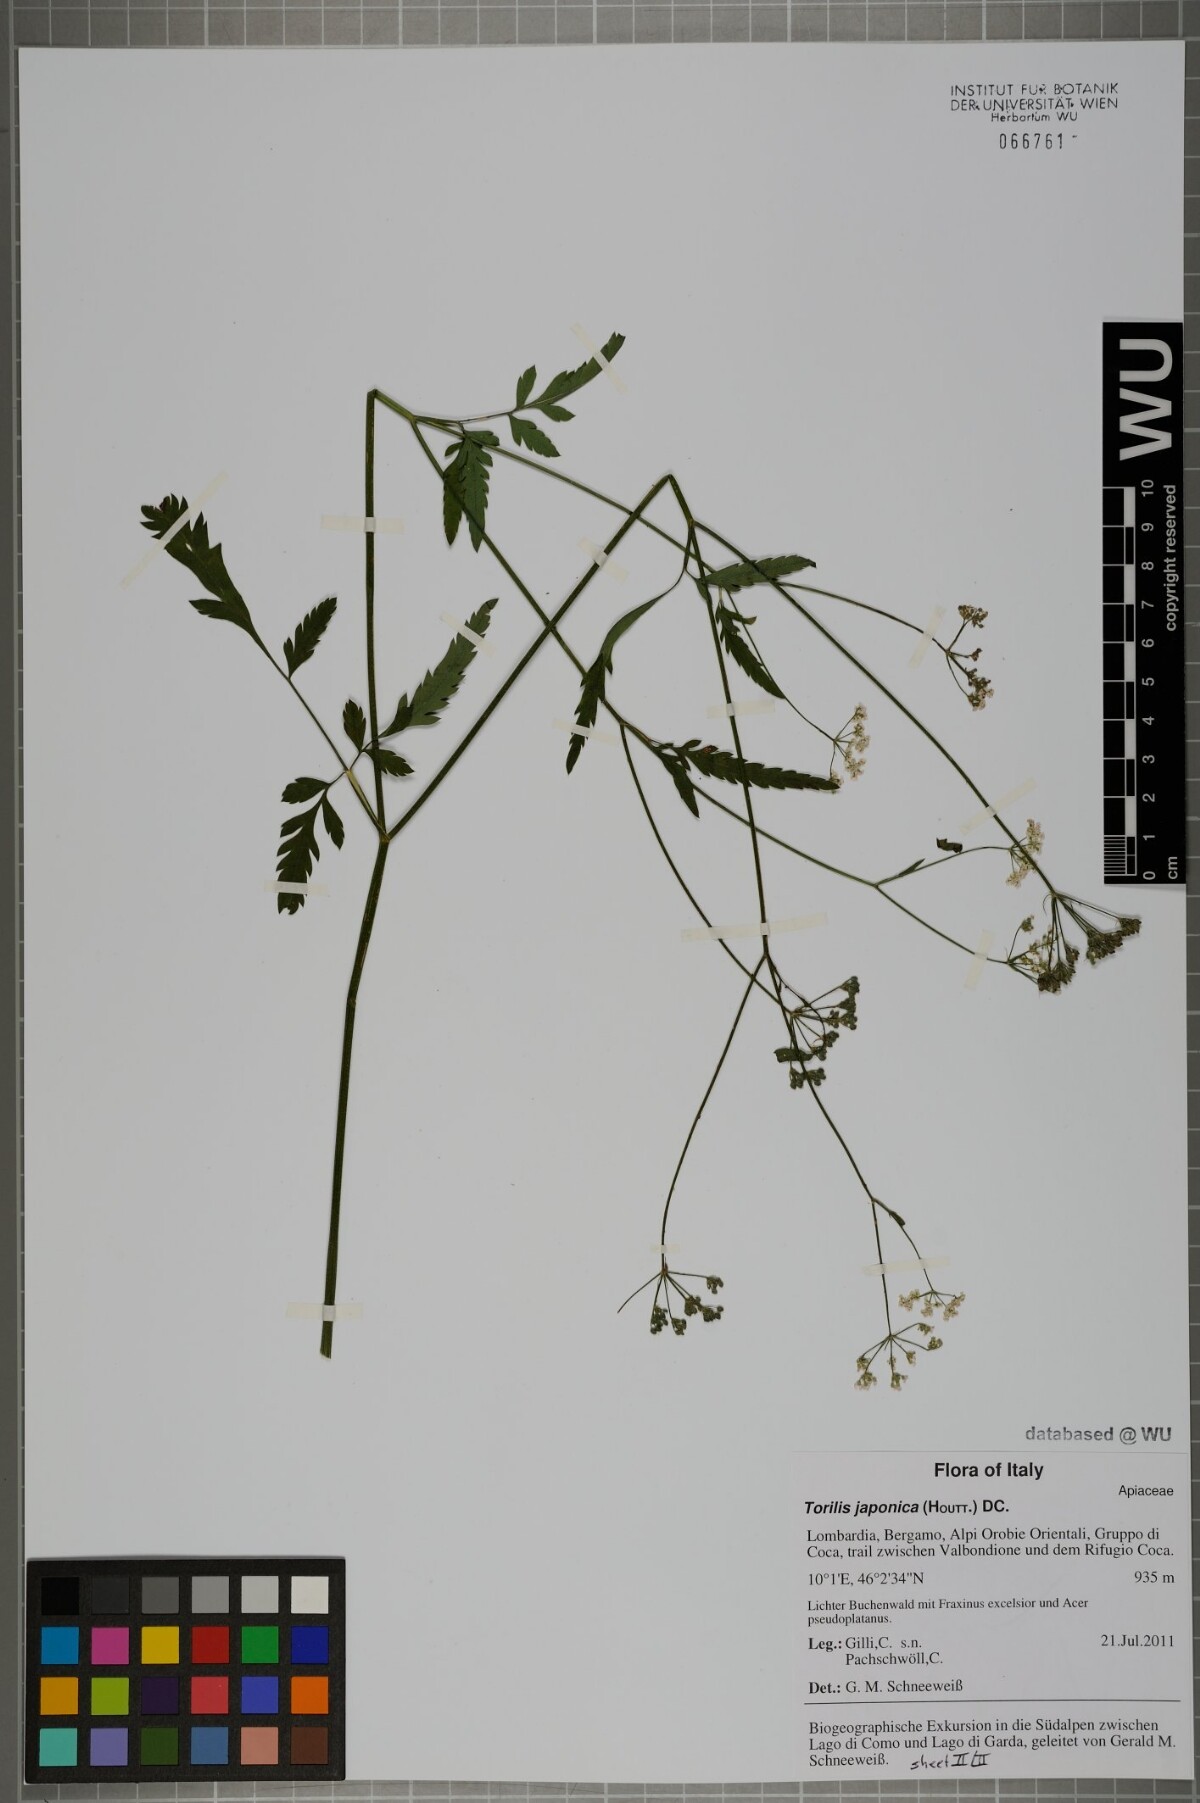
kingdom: Plantae
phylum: Tracheophyta
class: Magnoliopsida
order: Apiales
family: Apiaceae
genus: Torilis
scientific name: Torilis japonica
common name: Upright hedge-parsley
